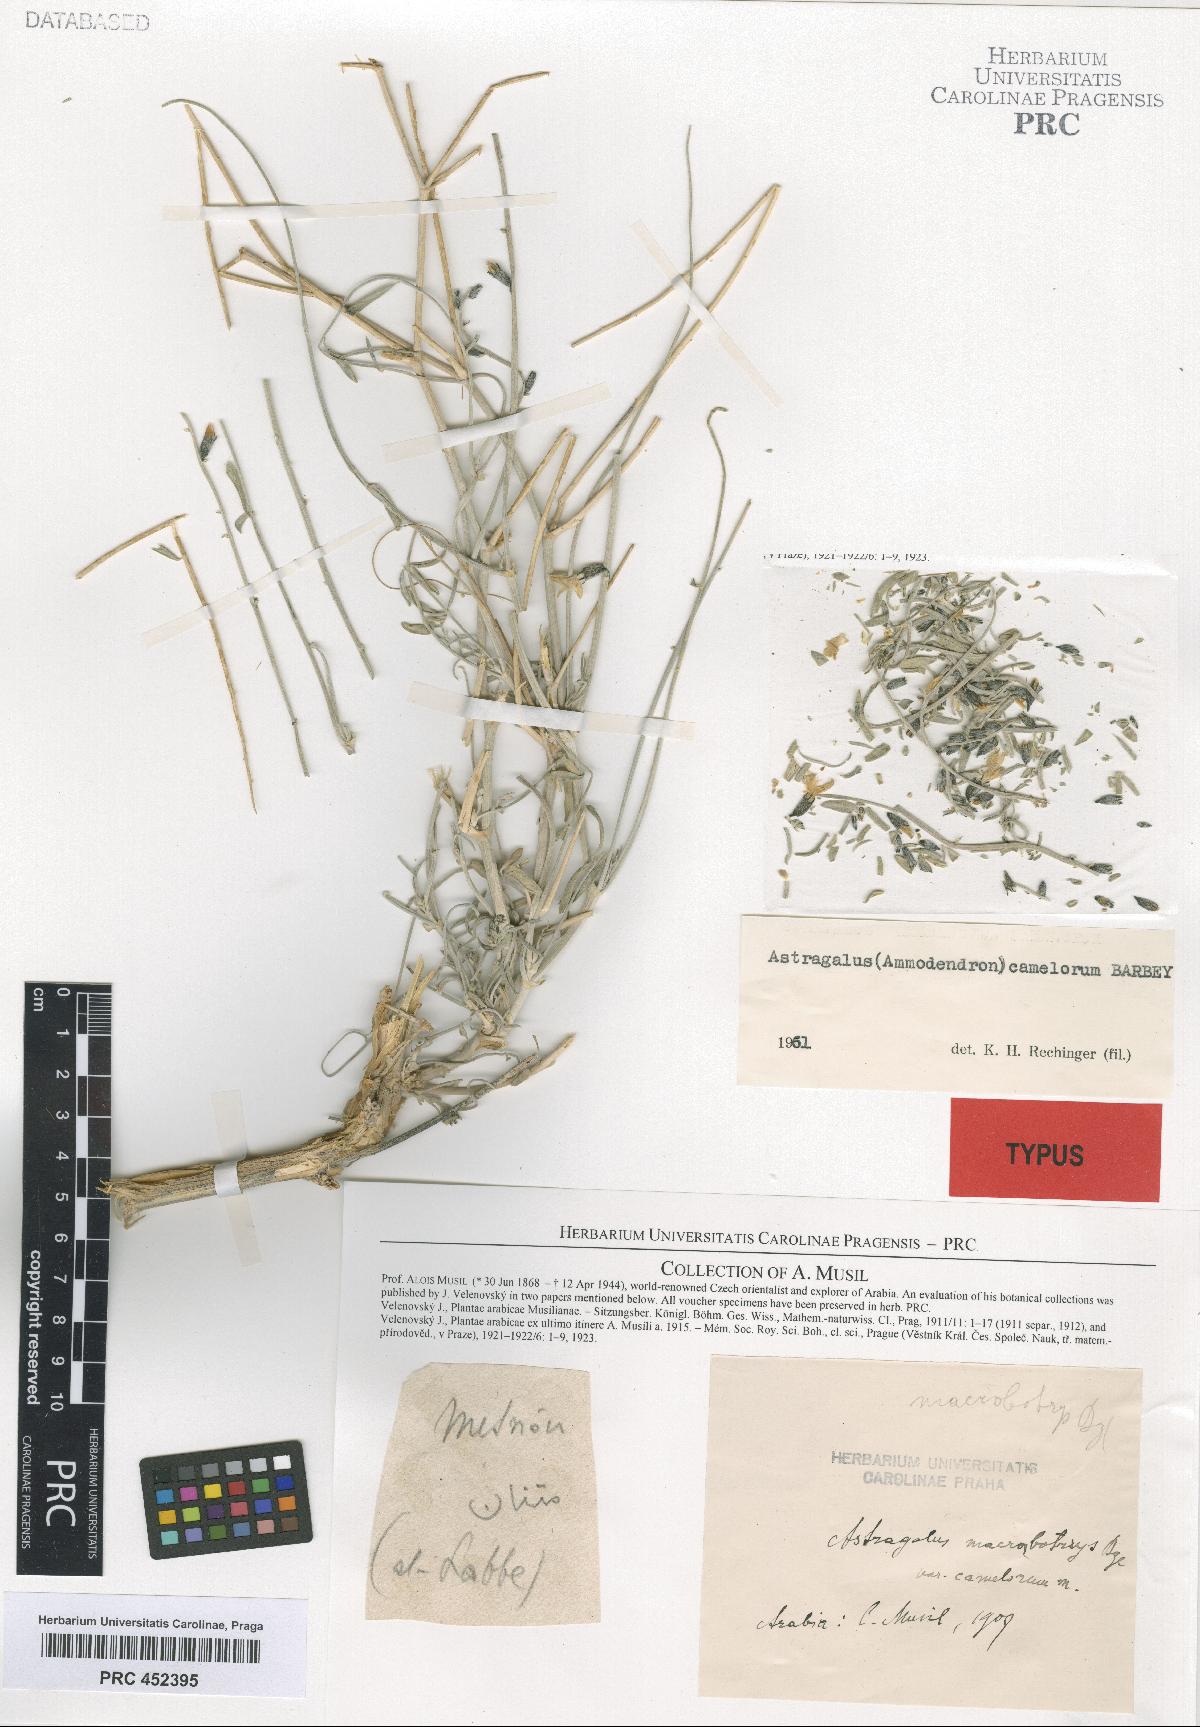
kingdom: Plantae
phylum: Tracheophyta
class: Magnoliopsida
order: Fabales
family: Fabaceae
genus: Astragalus
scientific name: Astragalus camelorum
